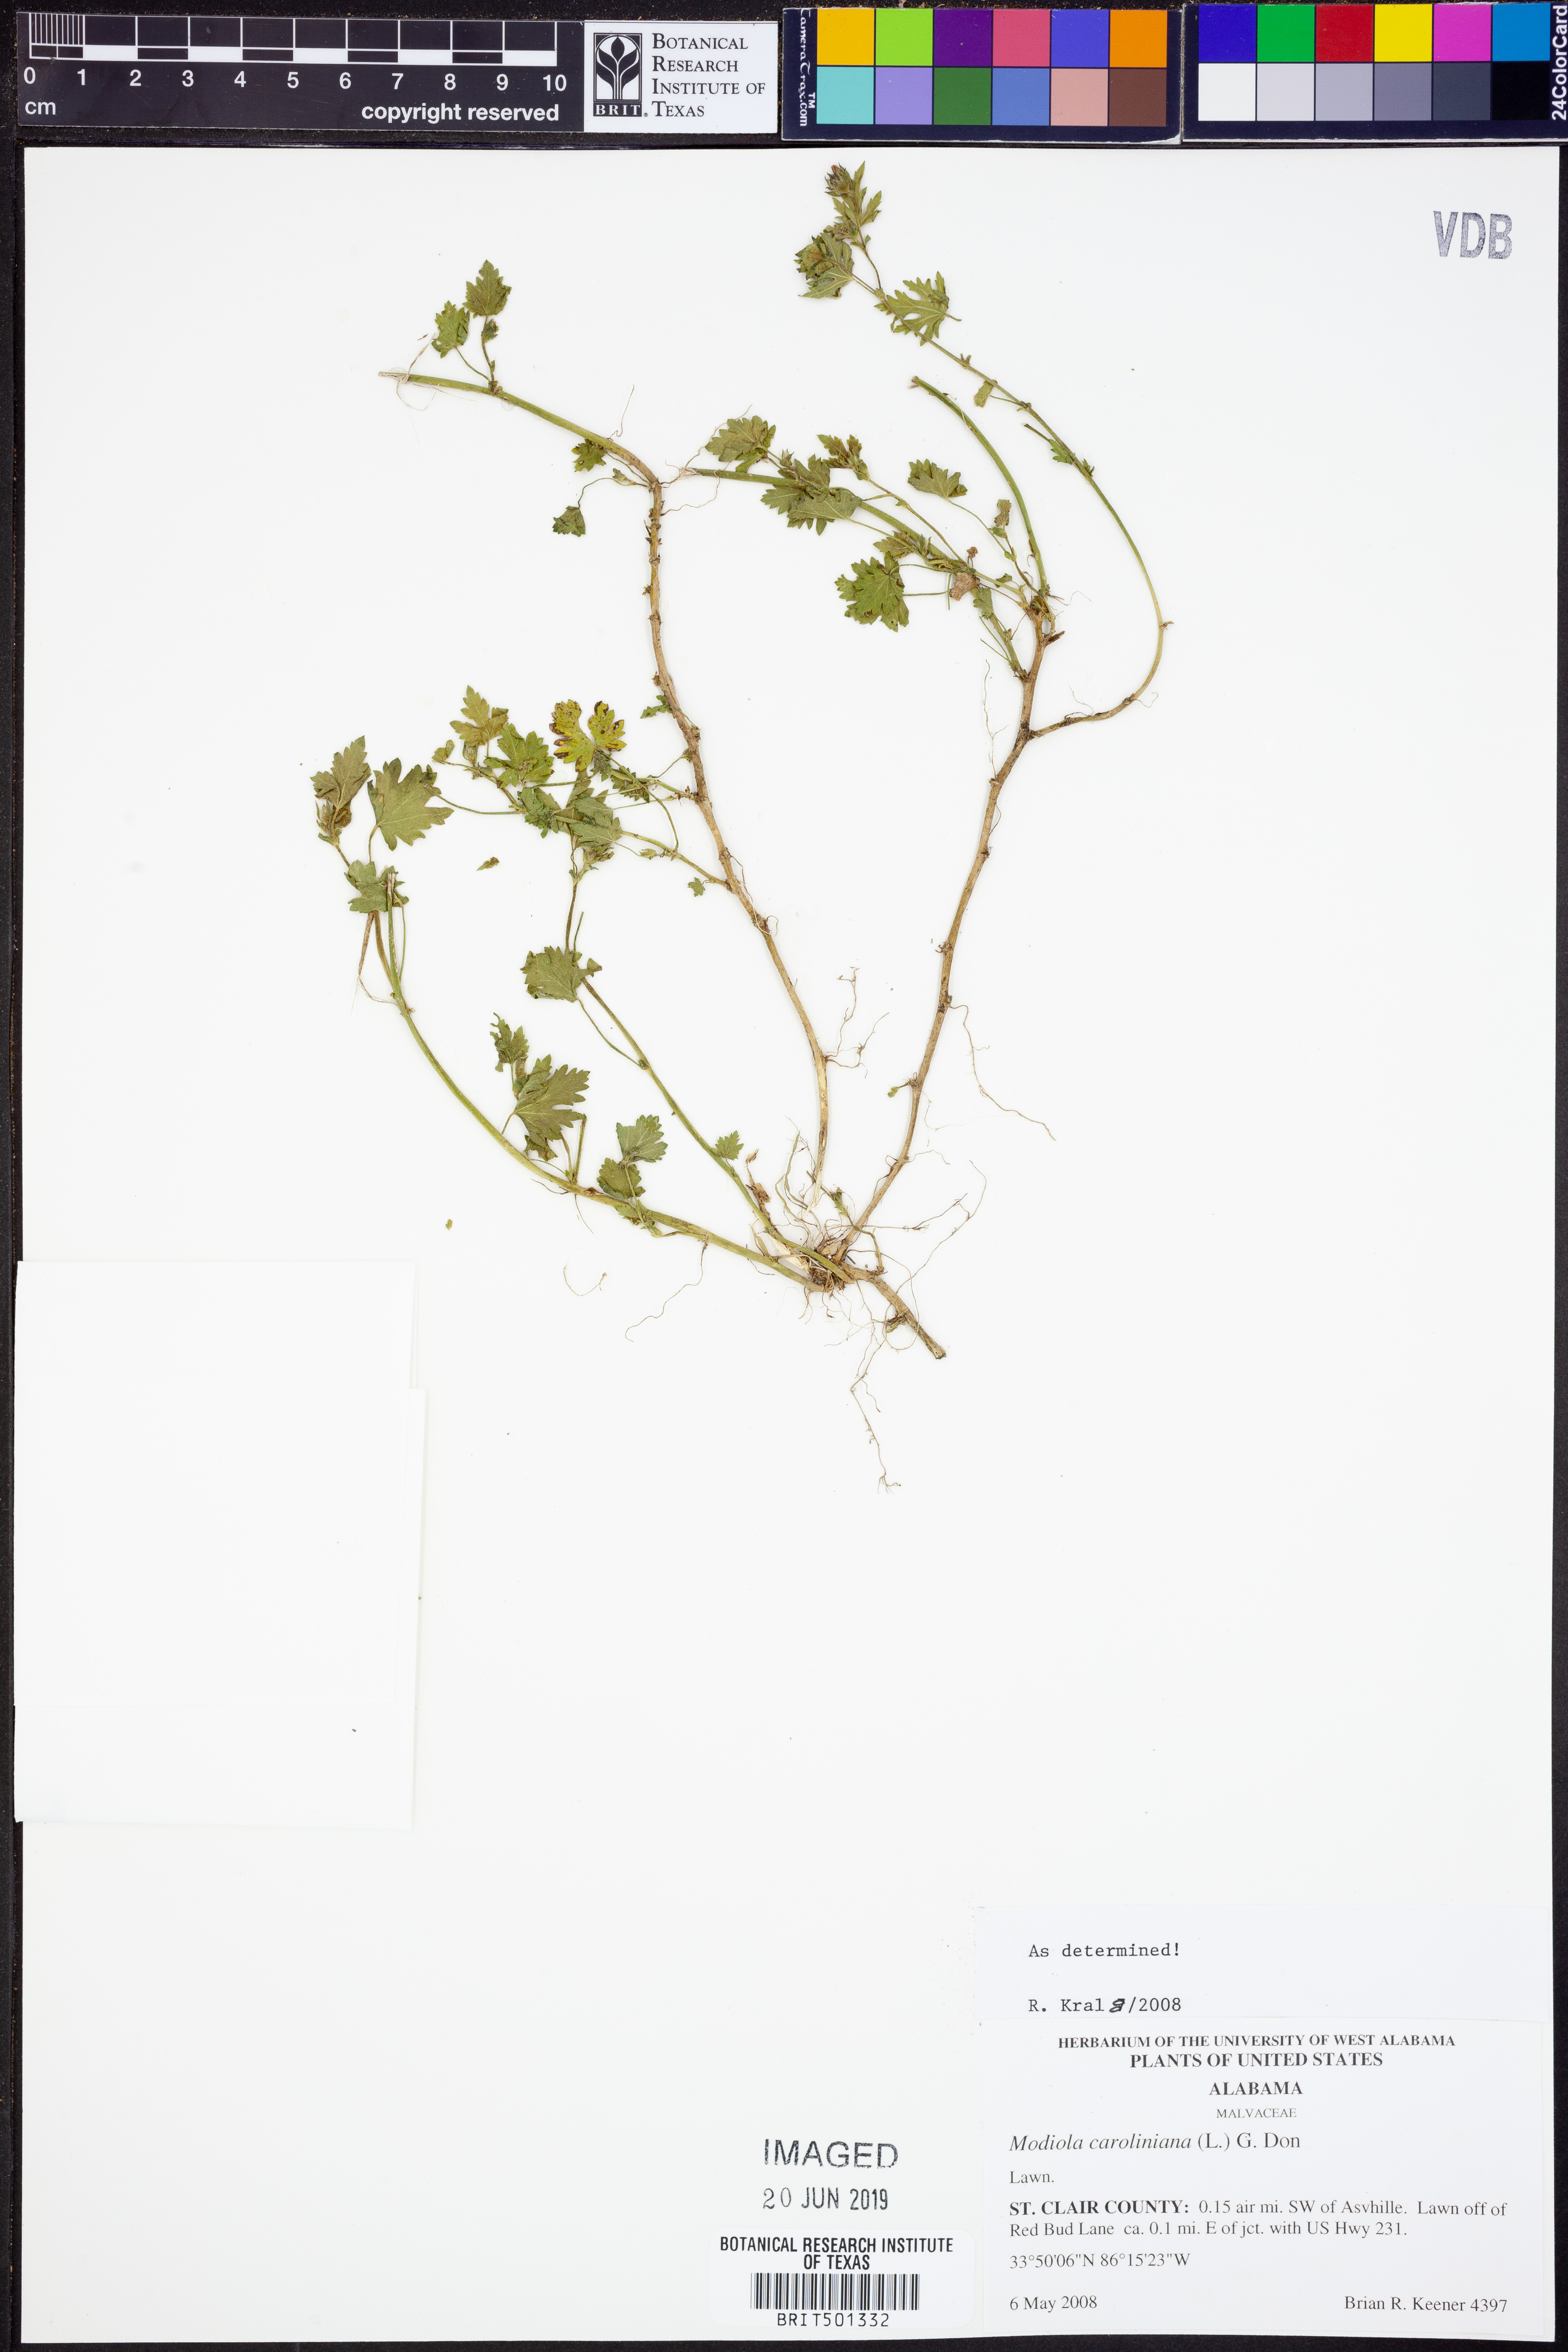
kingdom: Plantae
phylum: Tracheophyta
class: Magnoliopsida
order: Malvales
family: Malvaceae
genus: Modiola
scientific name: Modiola caroliniana
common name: Carolina bristlemallow
